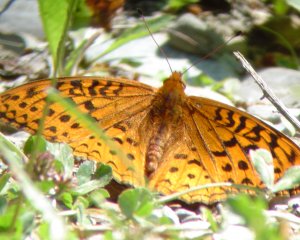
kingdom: Animalia
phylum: Arthropoda
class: Insecta
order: Lepidoptera
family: Nymphalidae
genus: Speyeria
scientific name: Speyeria aphrodite
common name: Aphrodite Fritillary
